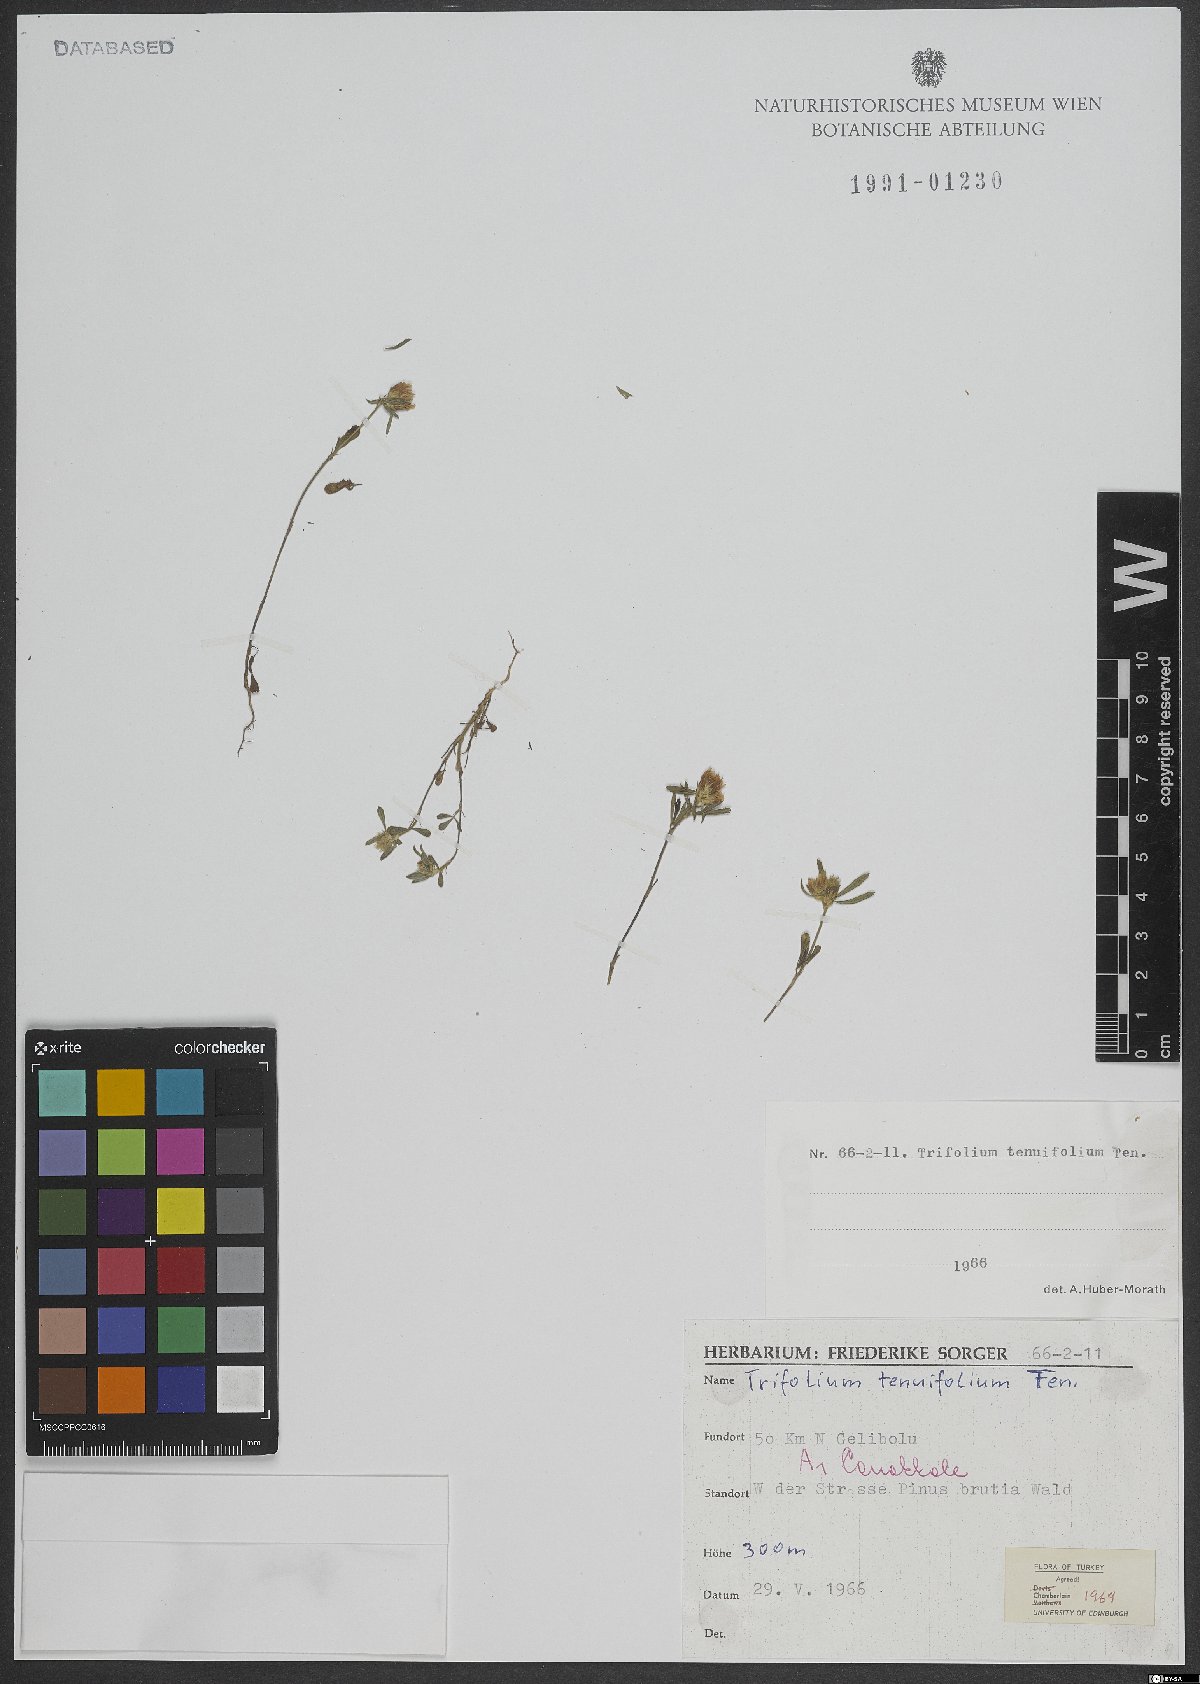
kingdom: Plantae
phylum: Tracheophyta
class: Magnoliopsida
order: Fabales
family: Fabaceae
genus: Trifolium
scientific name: Trifolium tenuifolium
